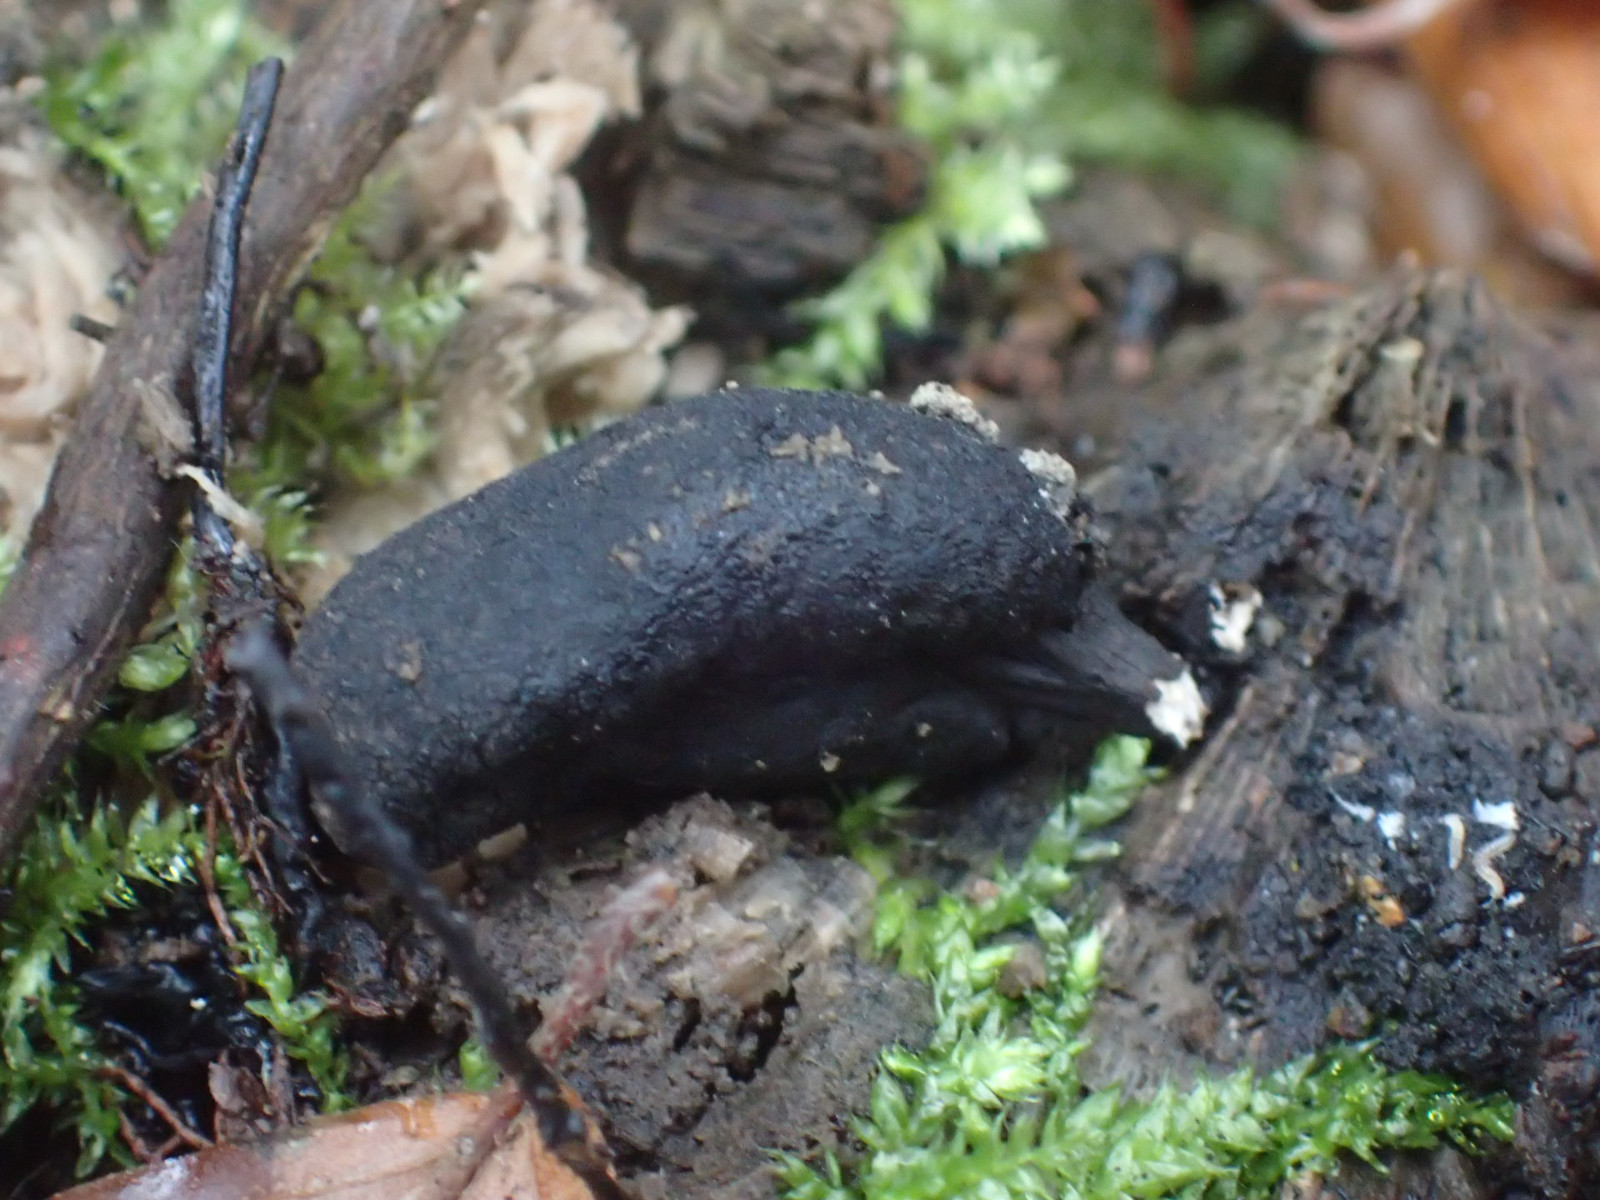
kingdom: Fungi
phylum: Ascomycota
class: Sordariomycetes
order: Xylariales
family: Xylariaceae
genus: Xylaria
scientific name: Xylaria polymorpha
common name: kølle-stødsvamp
